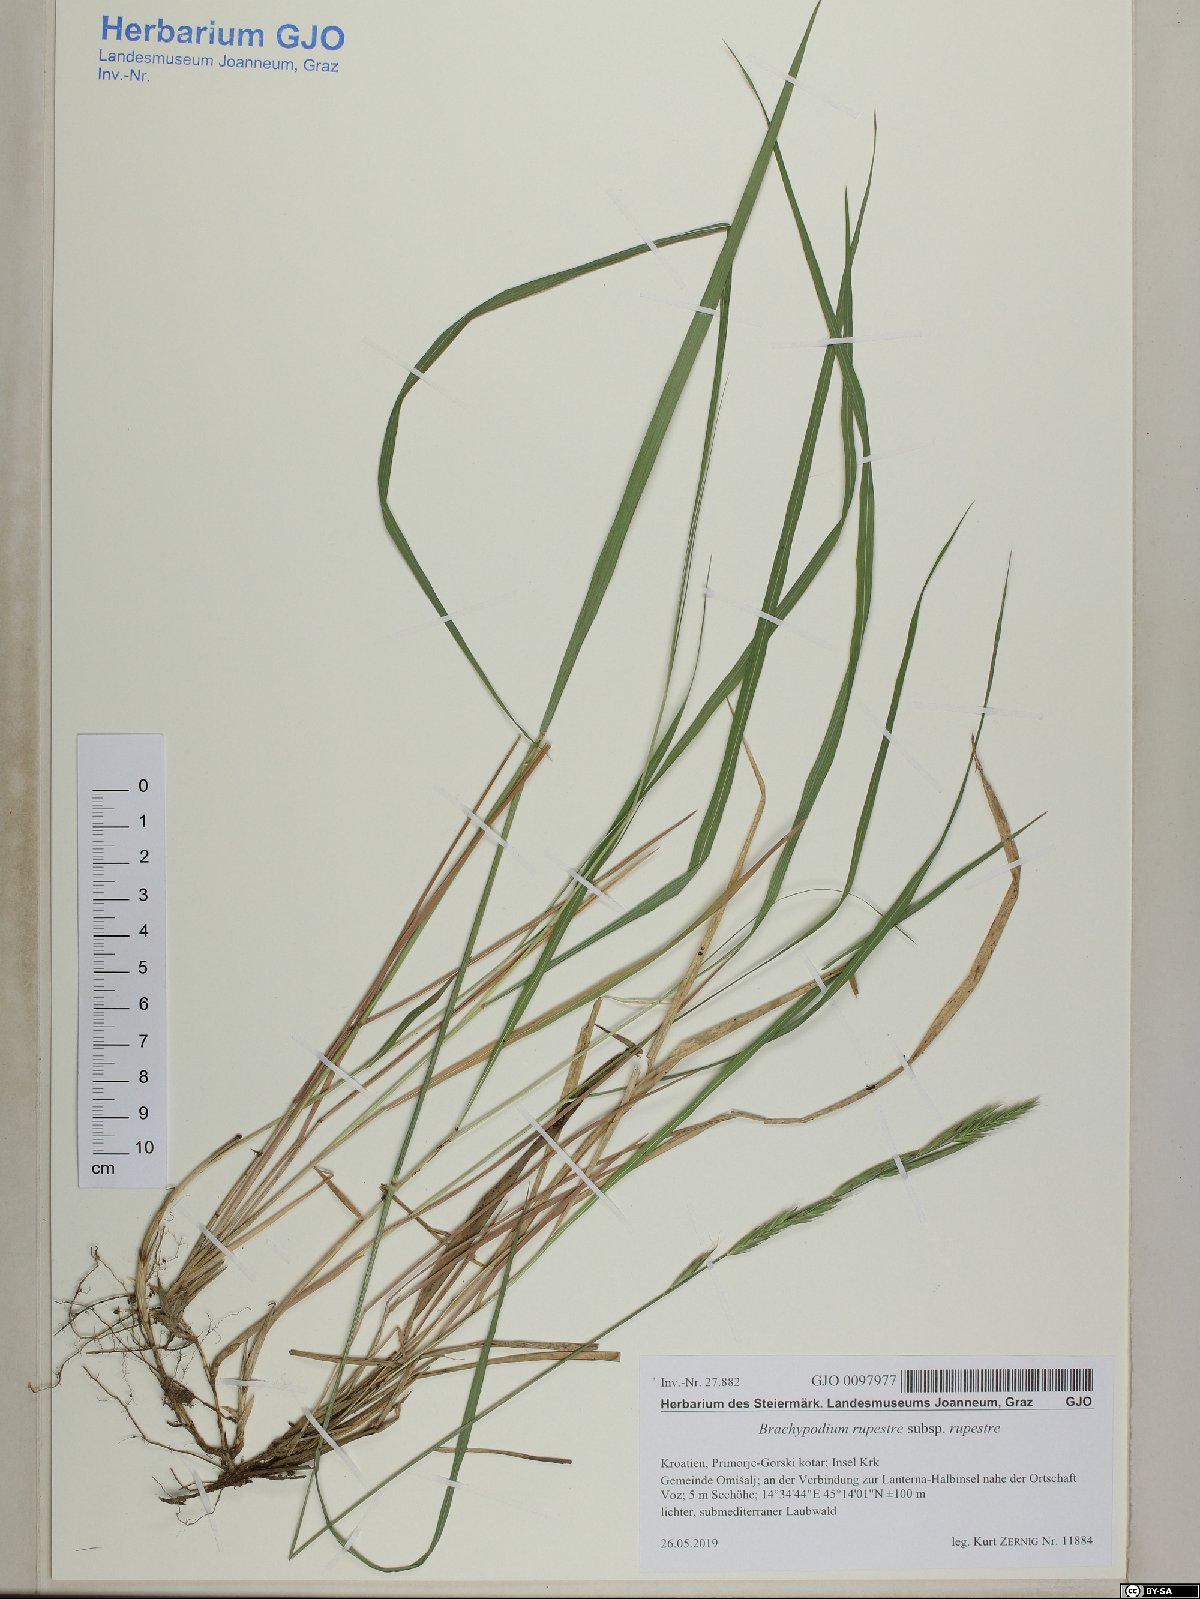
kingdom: Plantae
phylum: Tracheophyta
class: Liliopsida
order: Poales
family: Poaceae
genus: Brachypodium
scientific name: Brachypodium pinnatum
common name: Tor grass
